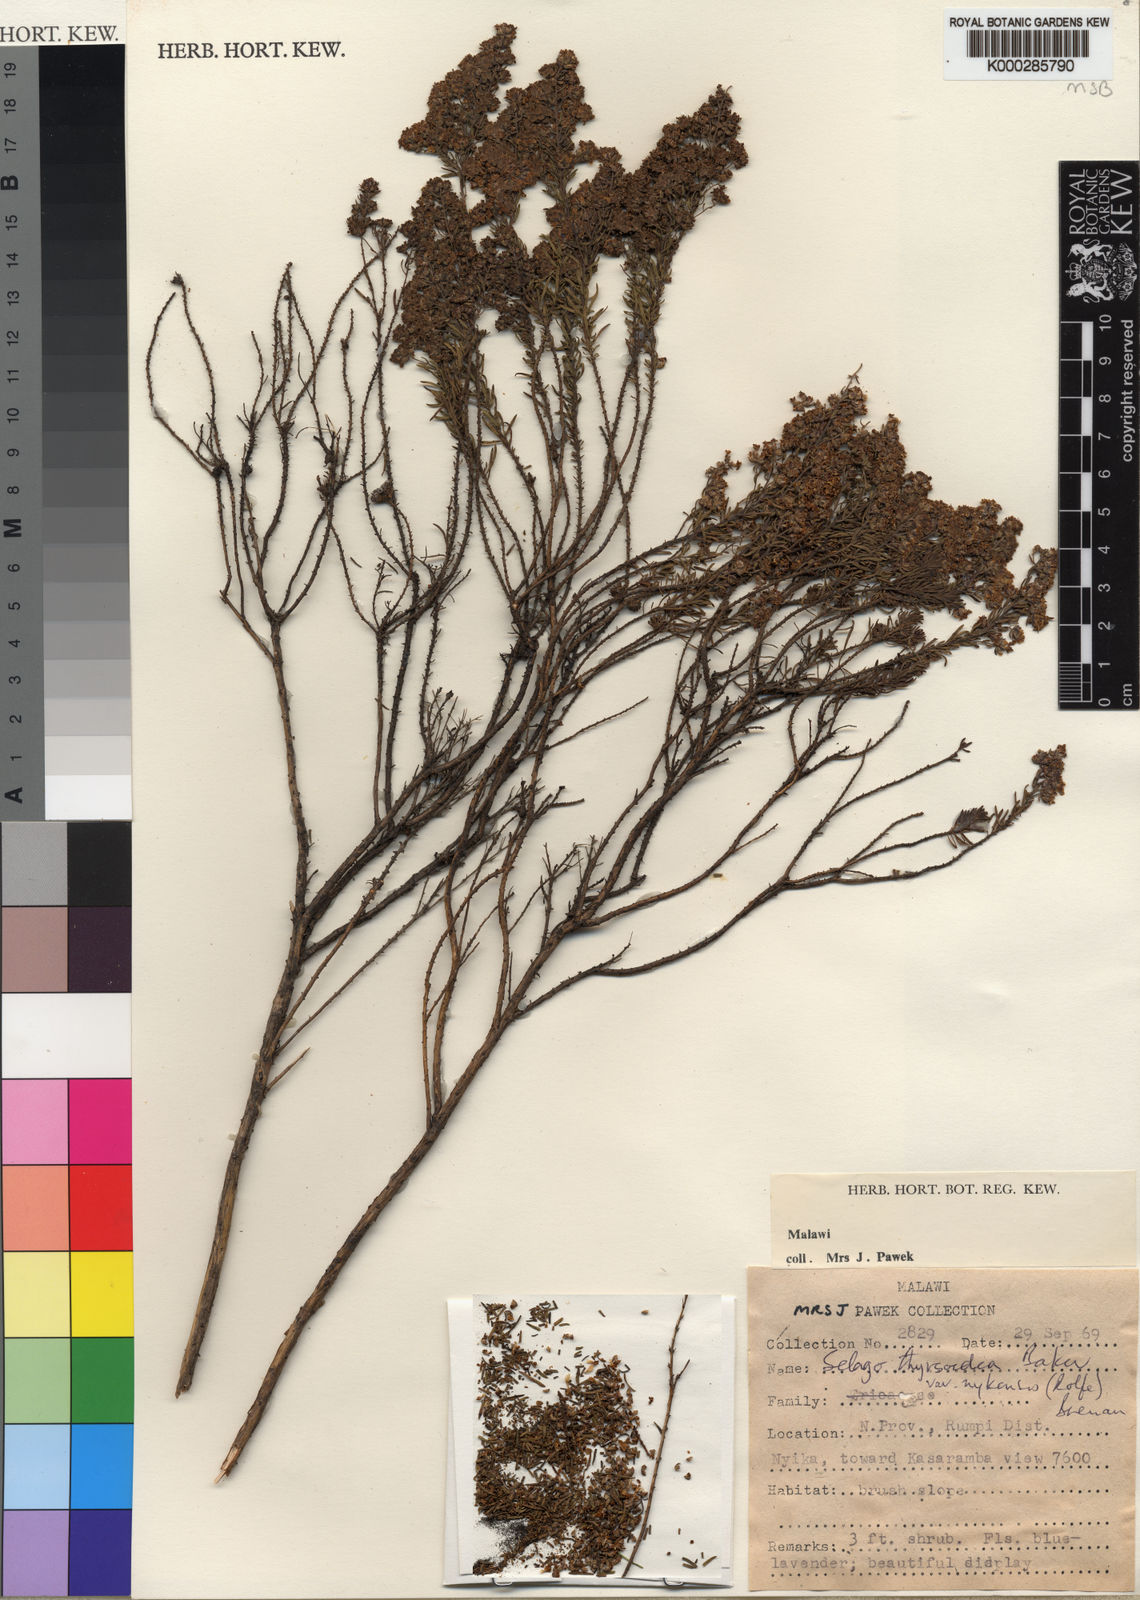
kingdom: Plantae
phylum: Tracheophyta
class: Magnoliopsida
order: Lamiales
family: Scrophulariaceae
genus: Selago
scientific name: Selago thyrsoidea
